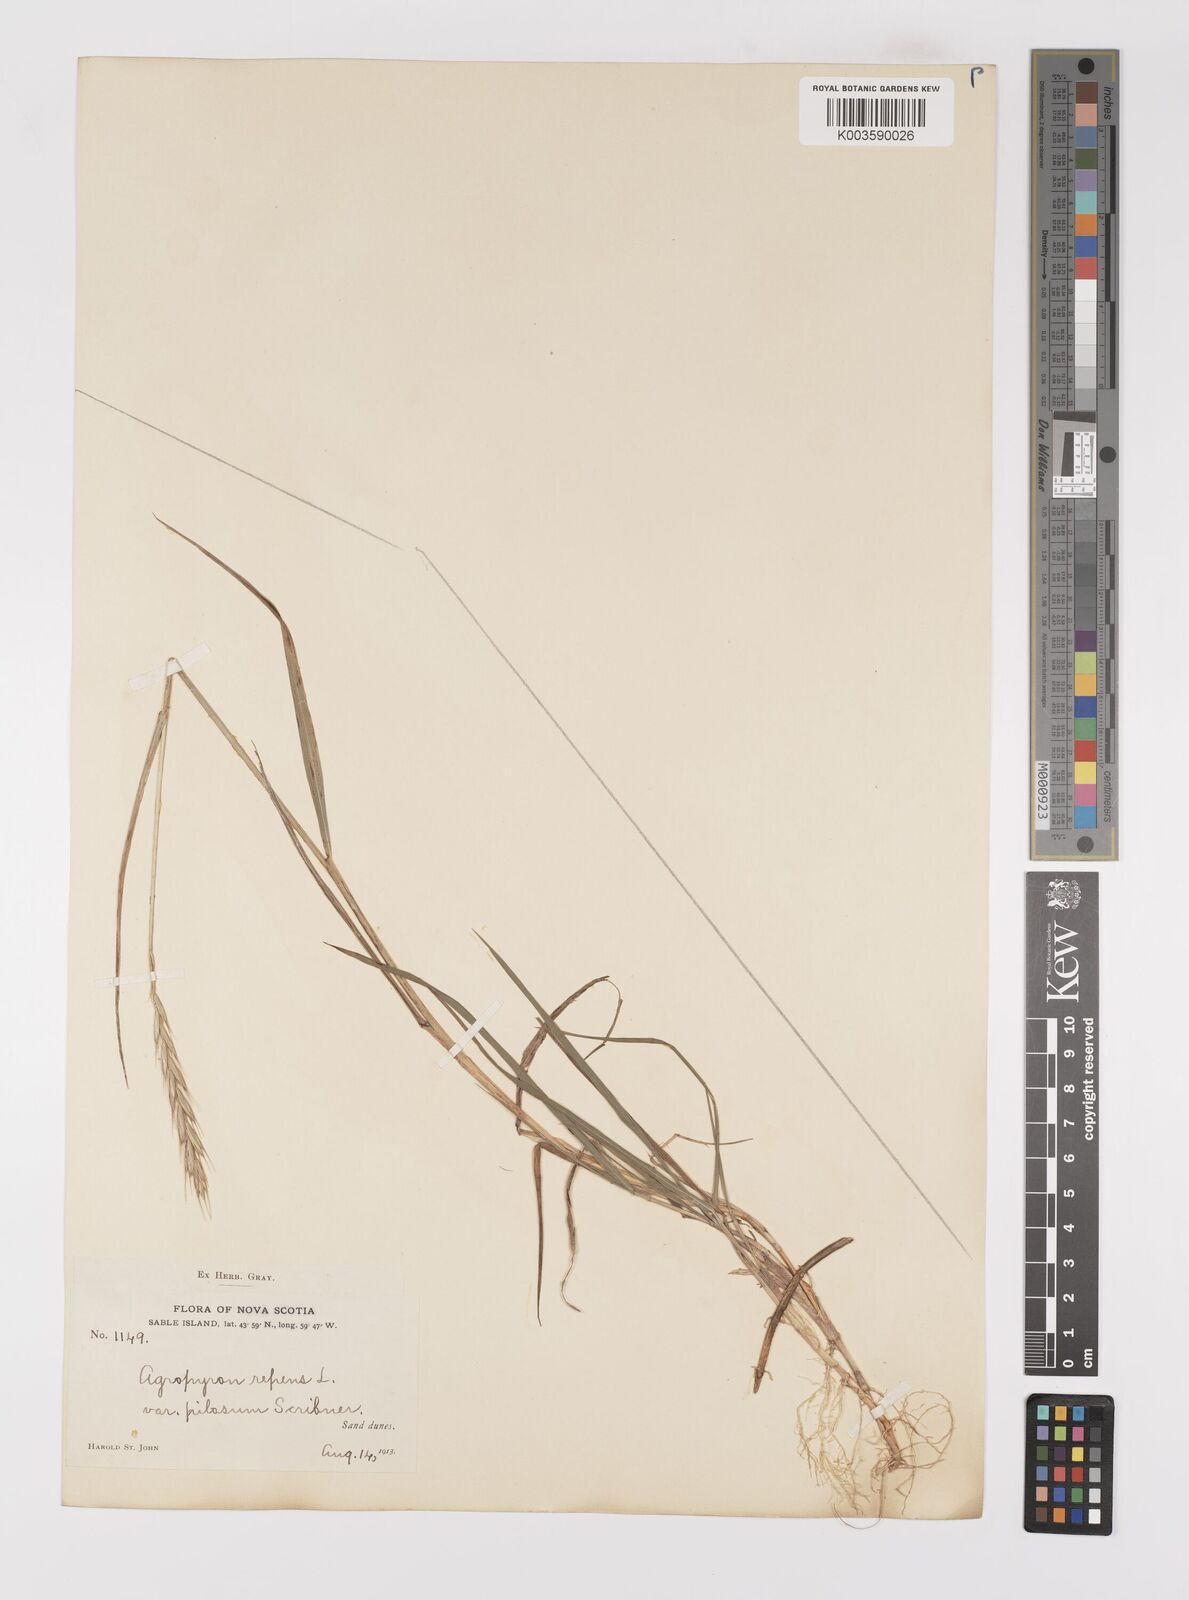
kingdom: Plantae
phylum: Tracheophyta
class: Liliopsida
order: Poales
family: Poaceae
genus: Elymus
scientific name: Elymus repens
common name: Quackgrass
